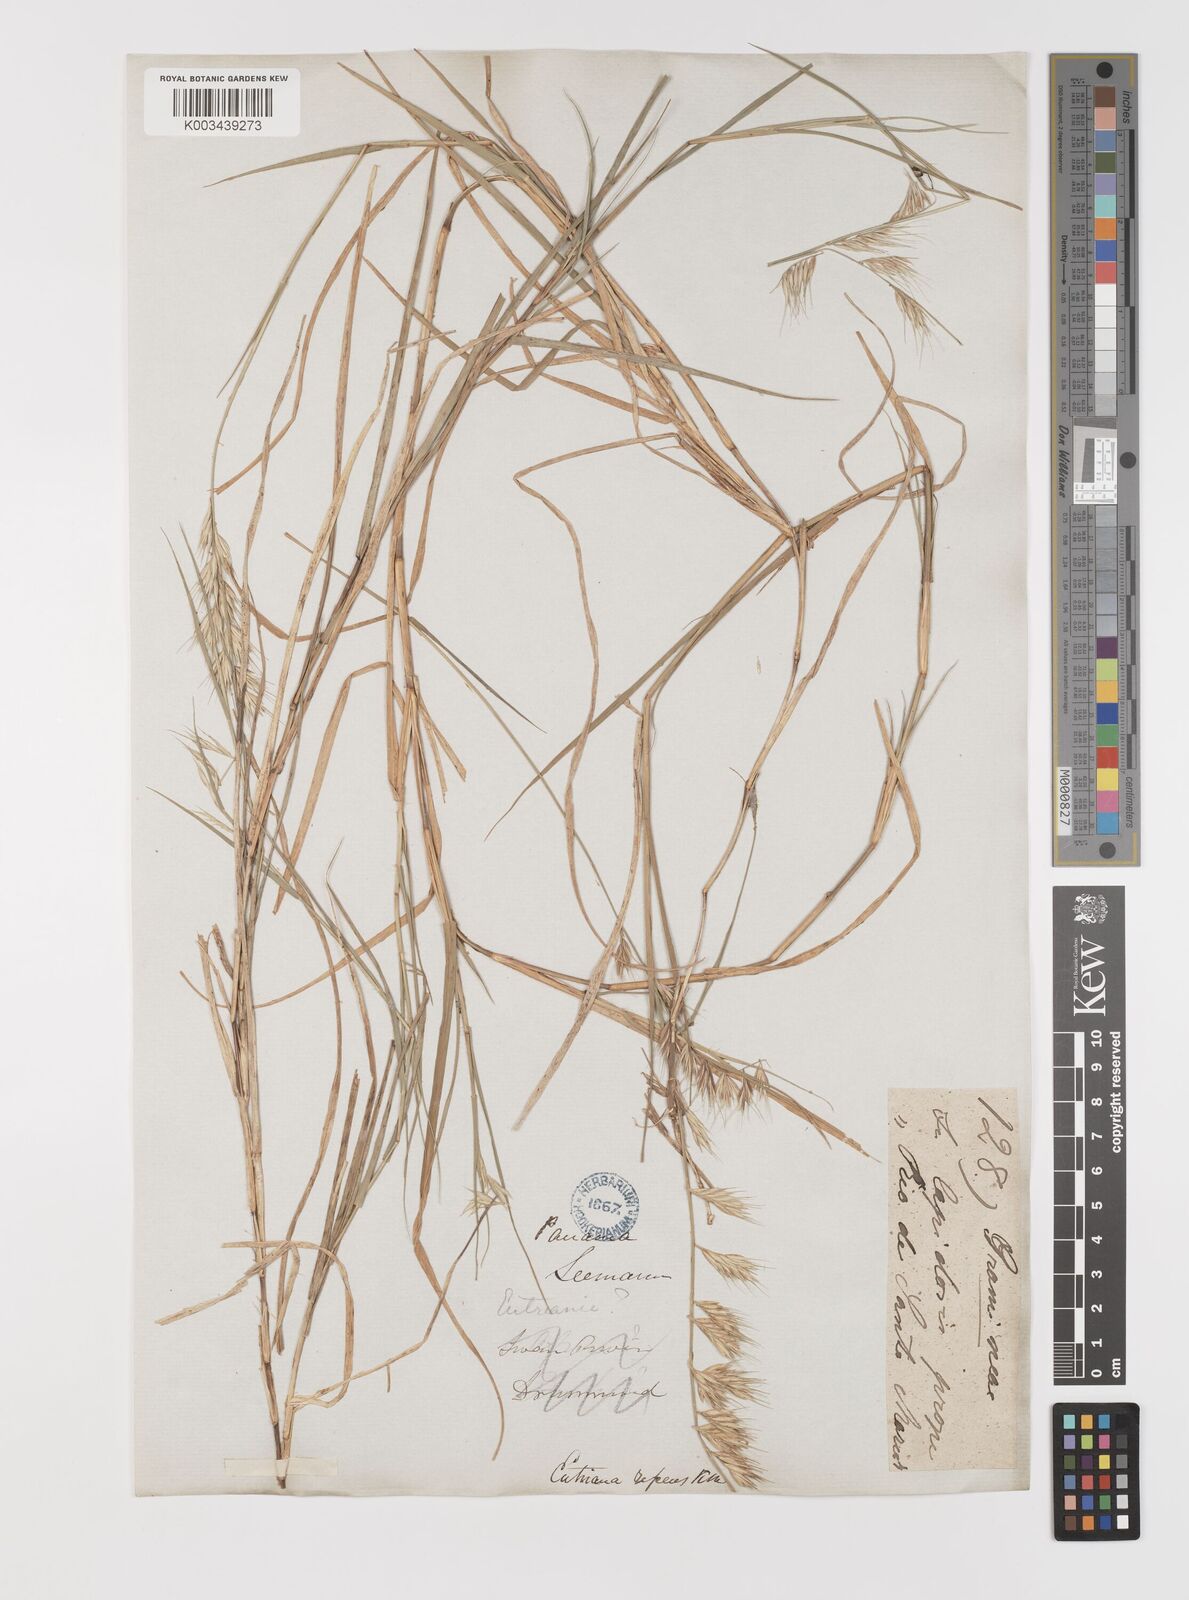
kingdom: Plantae
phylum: Tracheophyta
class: Liliopsida
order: Poales
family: Poaceae
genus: Bouteloua
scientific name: Bouteloua repens
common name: Slender grama
